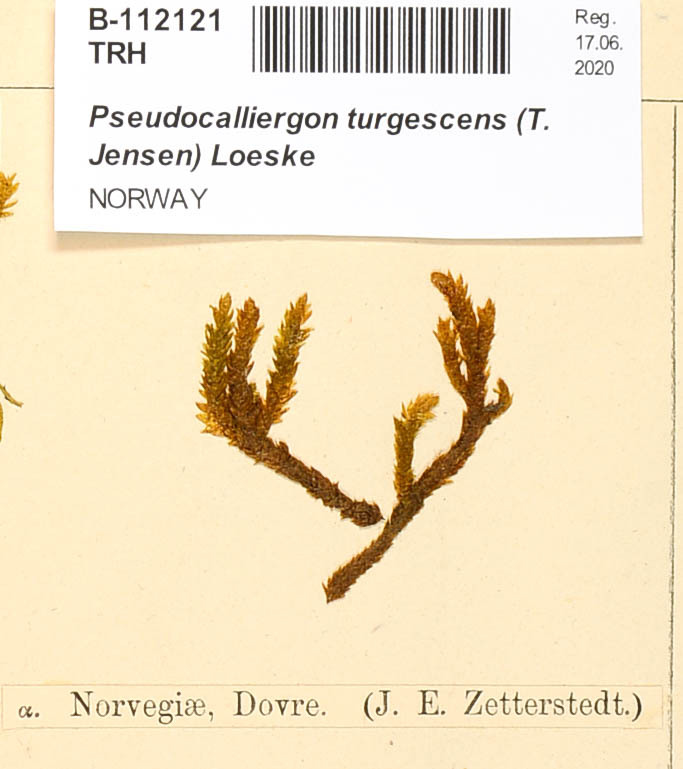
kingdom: Plantae
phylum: Bryophyta
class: Bryopsida
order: Hypnales
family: Amblystegiaceae
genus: Drepanocladus
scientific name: Drepanocladus turgescens
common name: Large yellow feather-moss
